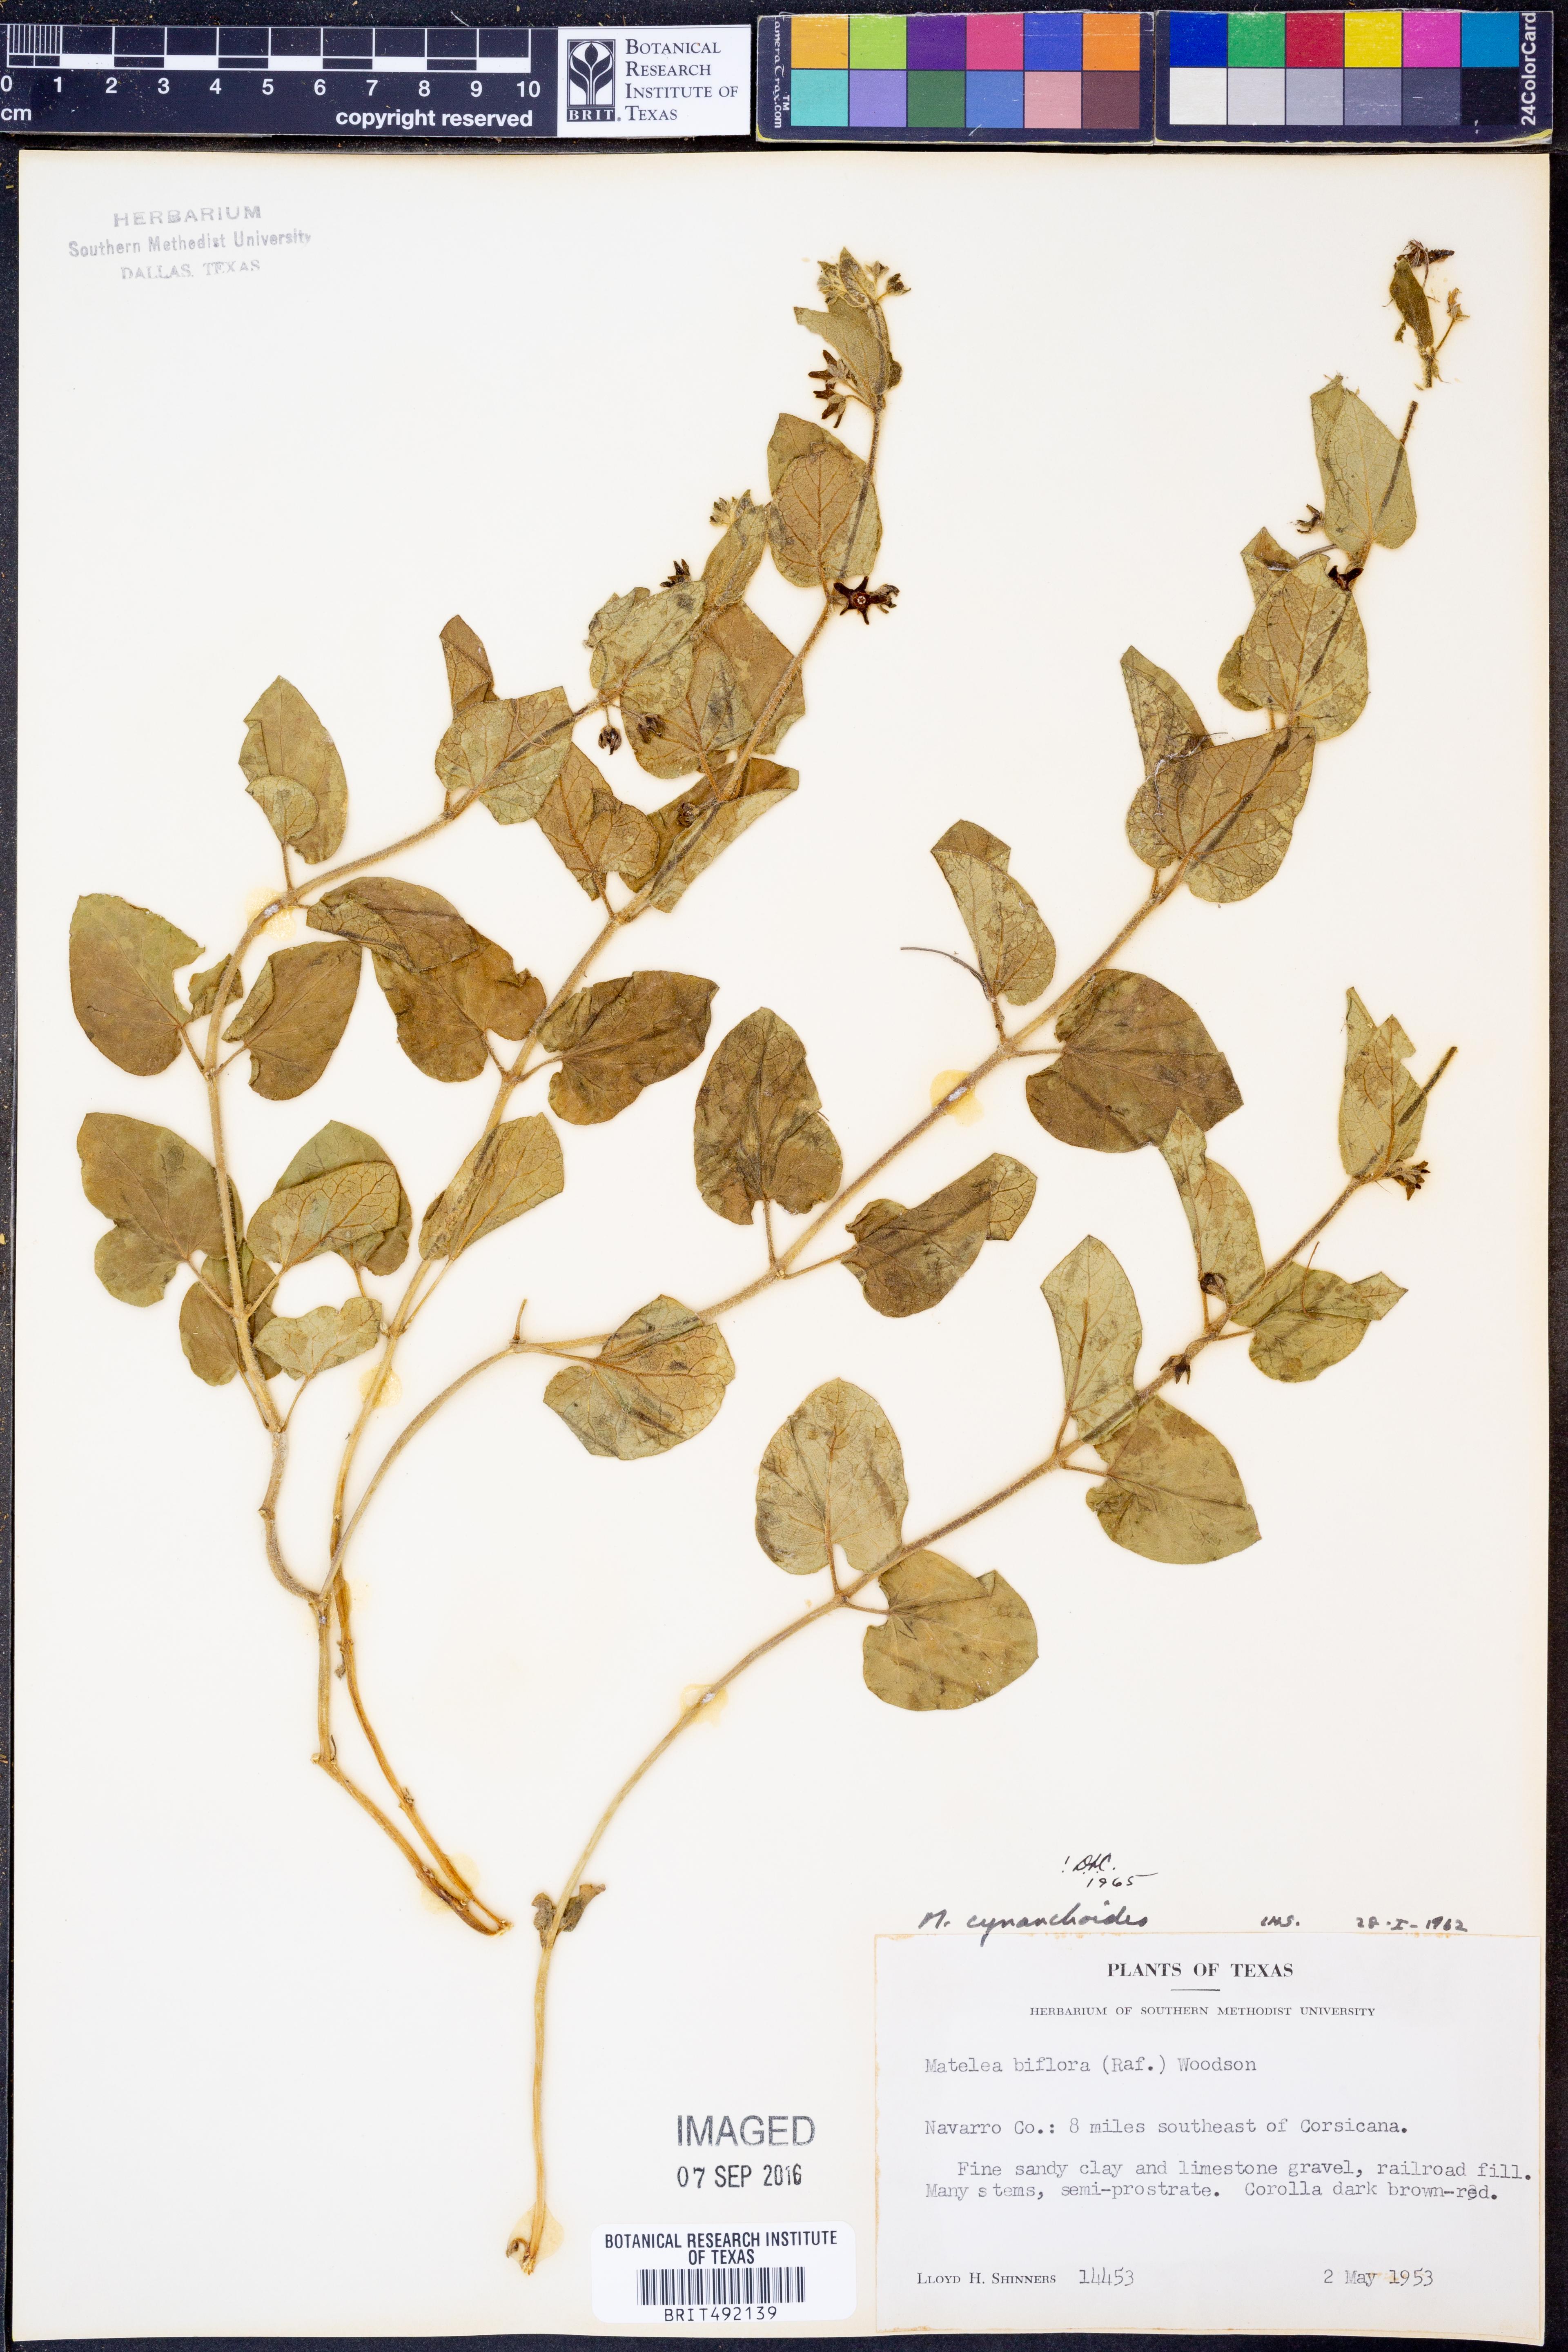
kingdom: Plantae
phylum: Tracheophyta
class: Magnoliopsida
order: Gentianales
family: Apocynaceae
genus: Matelea
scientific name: Matelea cynanchoides
